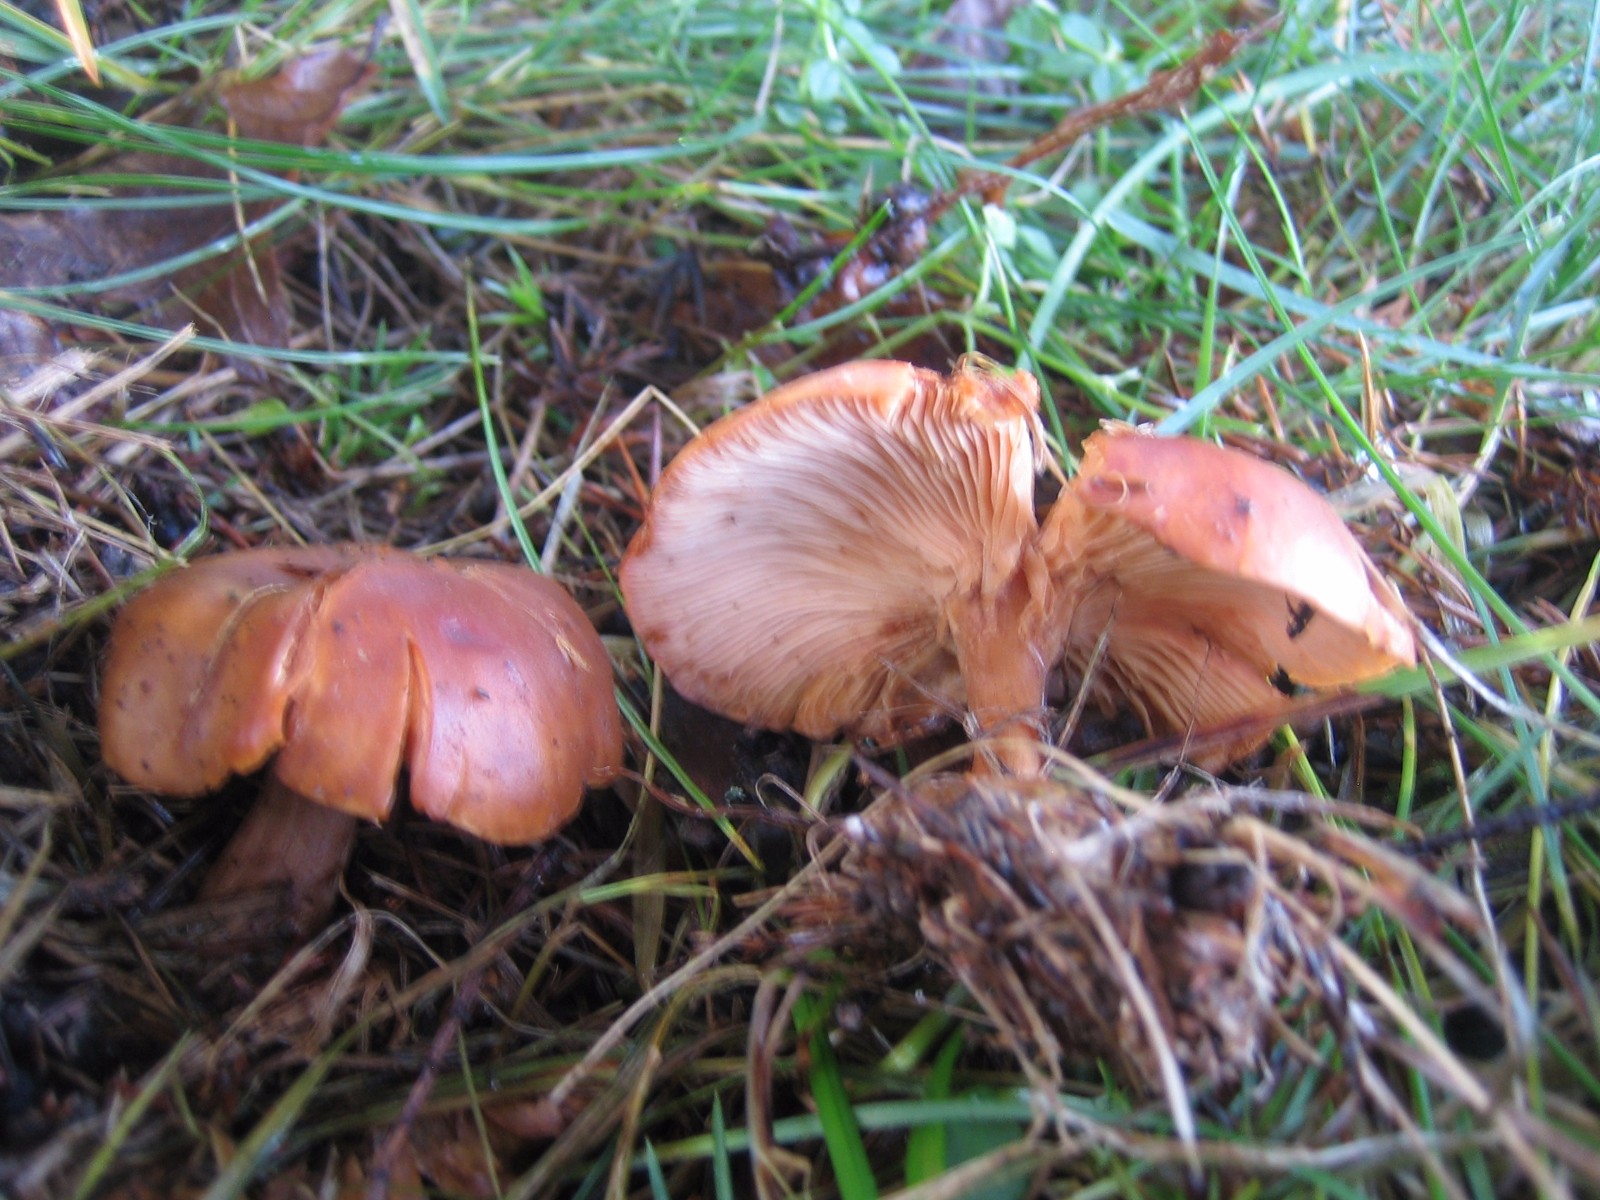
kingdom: Fungi
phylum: Basidiomycota
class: Agaricomycetes
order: Agaricales
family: Tricholomataceae
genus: Paralepista
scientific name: Paralepista flaccida
